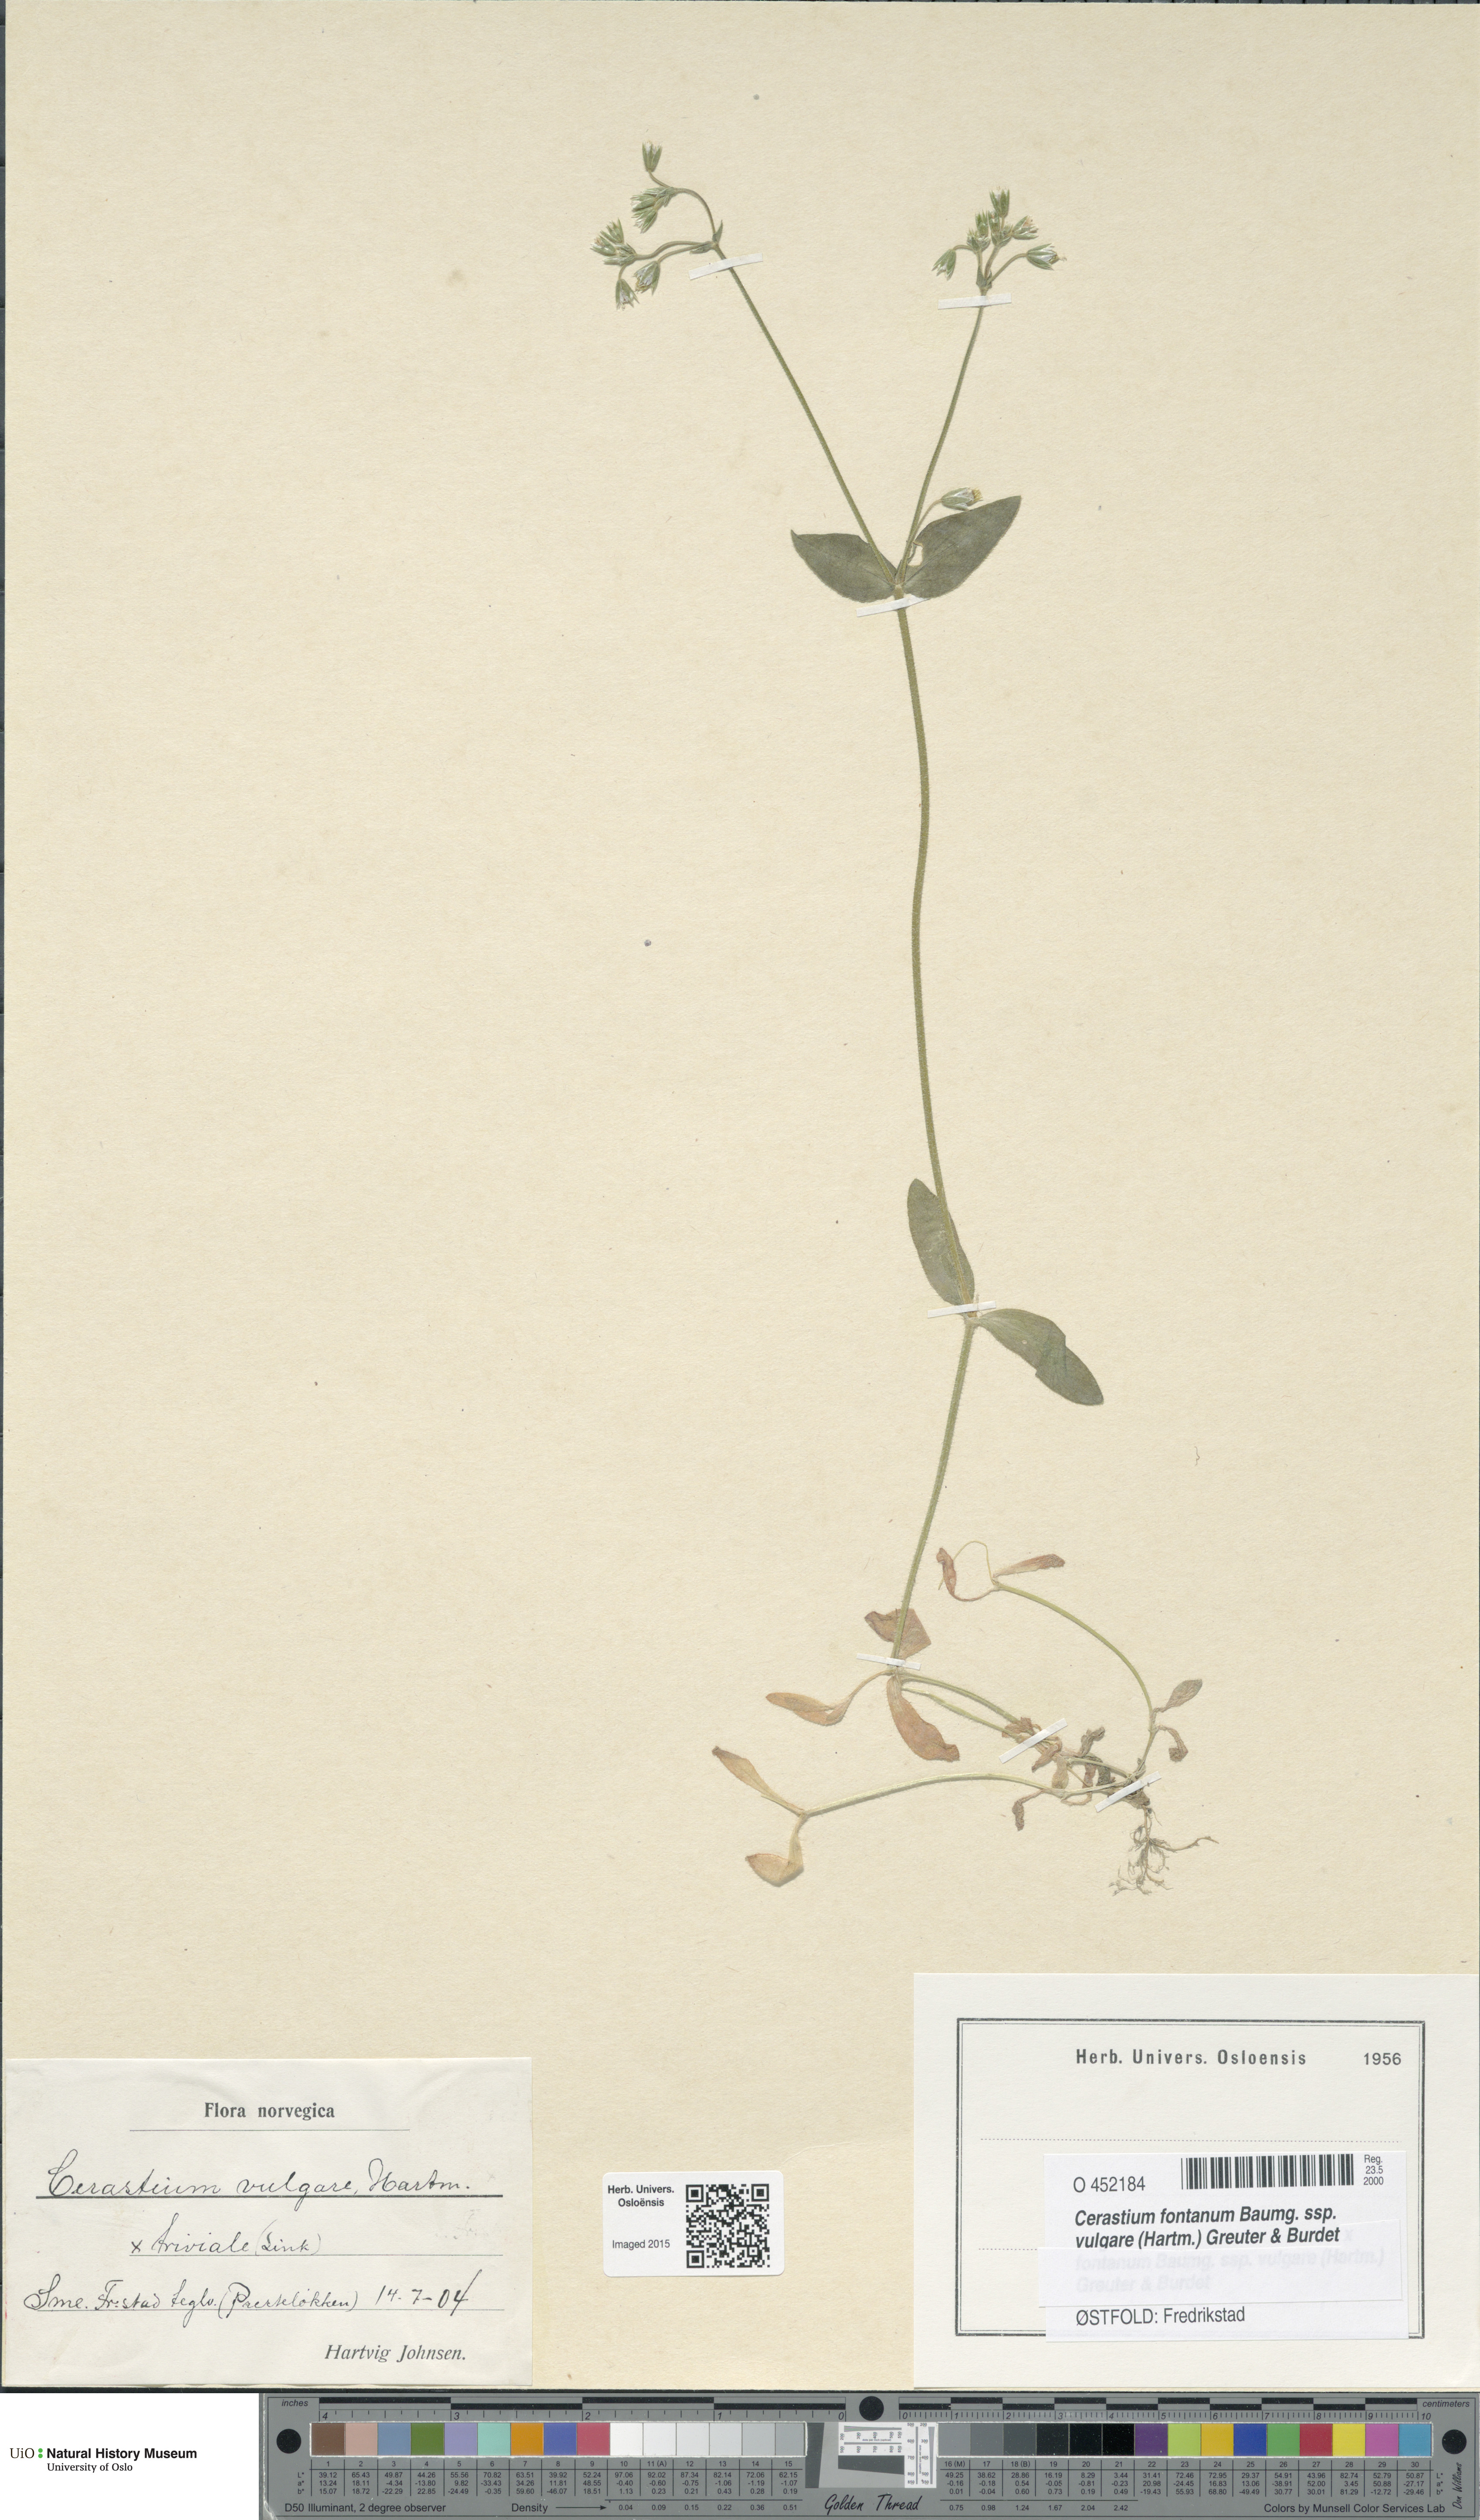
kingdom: Plantae
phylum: Tracheophyta
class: Magnoliopsida
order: Caryophyllales
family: Caryophyllaceae
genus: Cerastium
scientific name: Cerastium holosteoides
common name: Big chickweed
